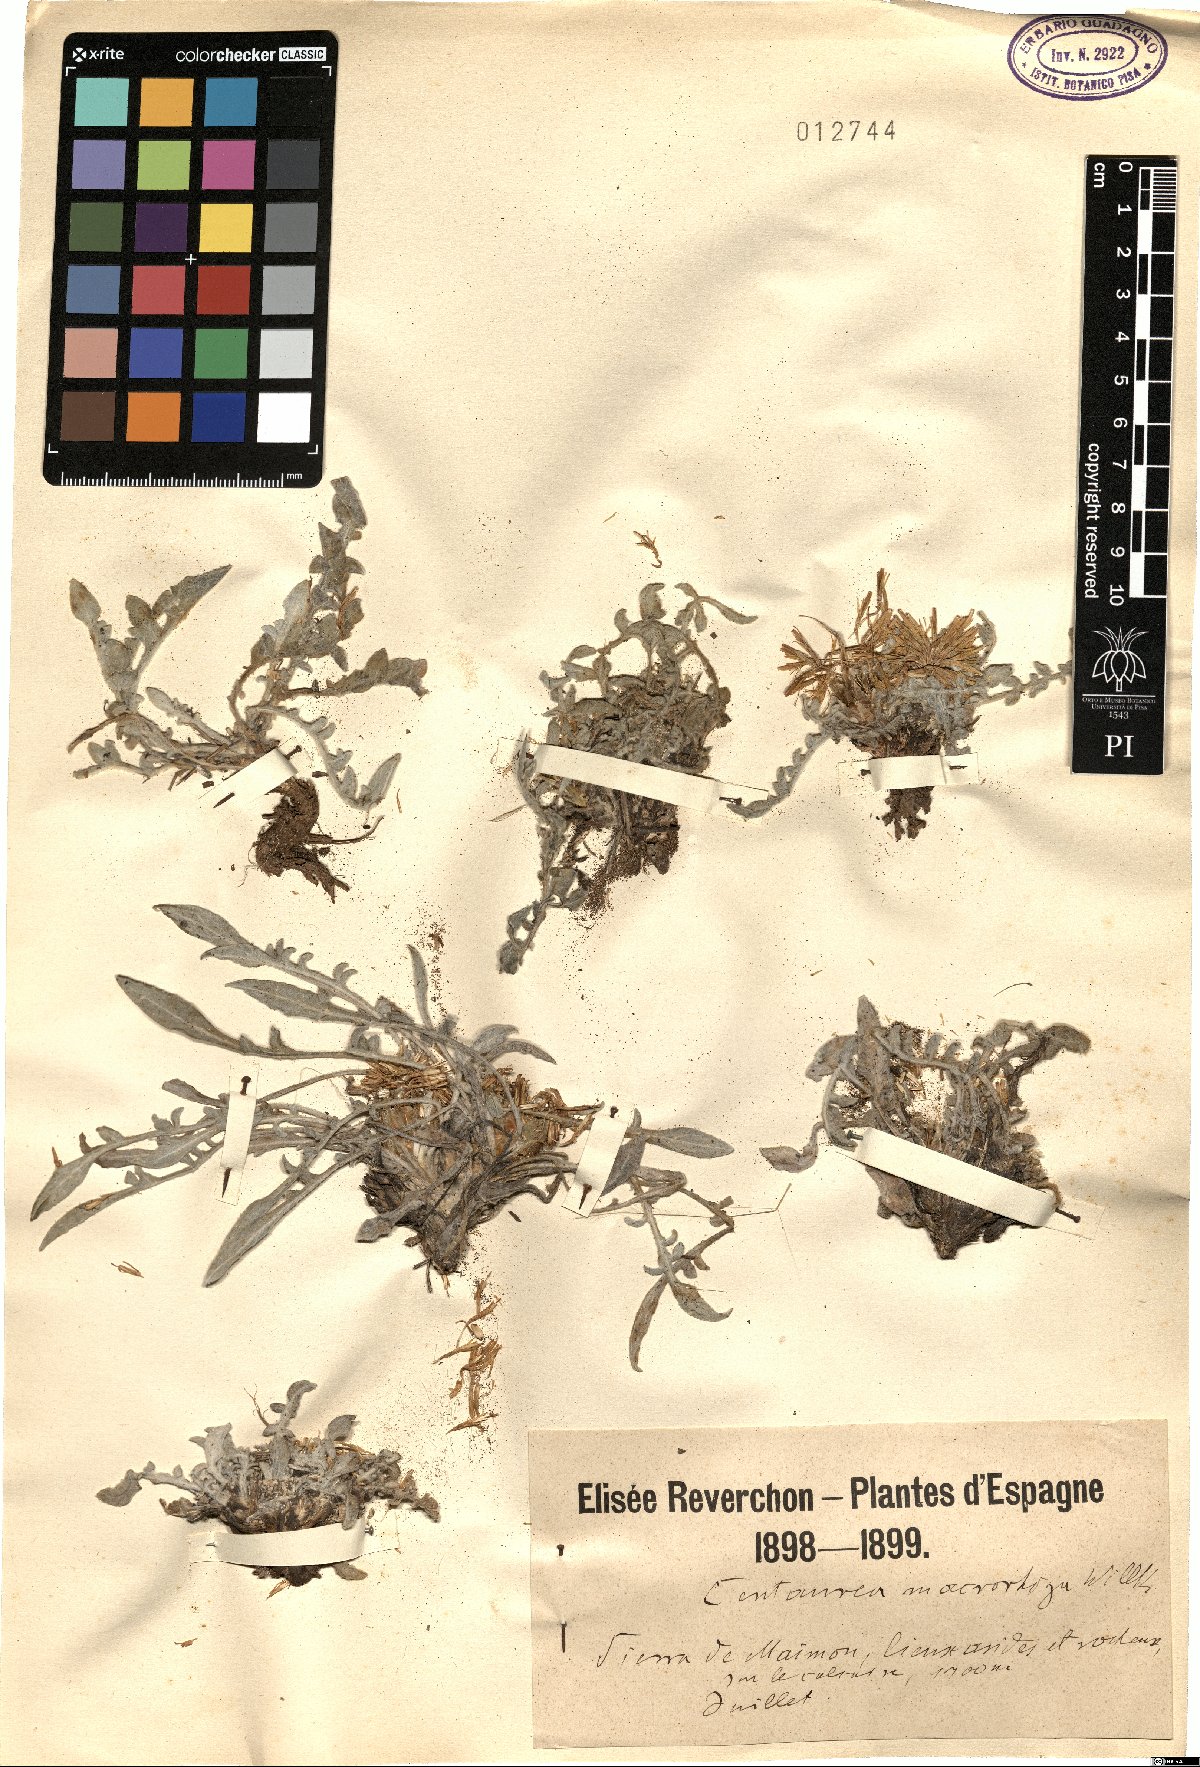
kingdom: Plantae
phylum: Tracheophyta
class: Magnoliopsida
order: Asterales
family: Asteraceae
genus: Centaurea
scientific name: Centaurea mariana
